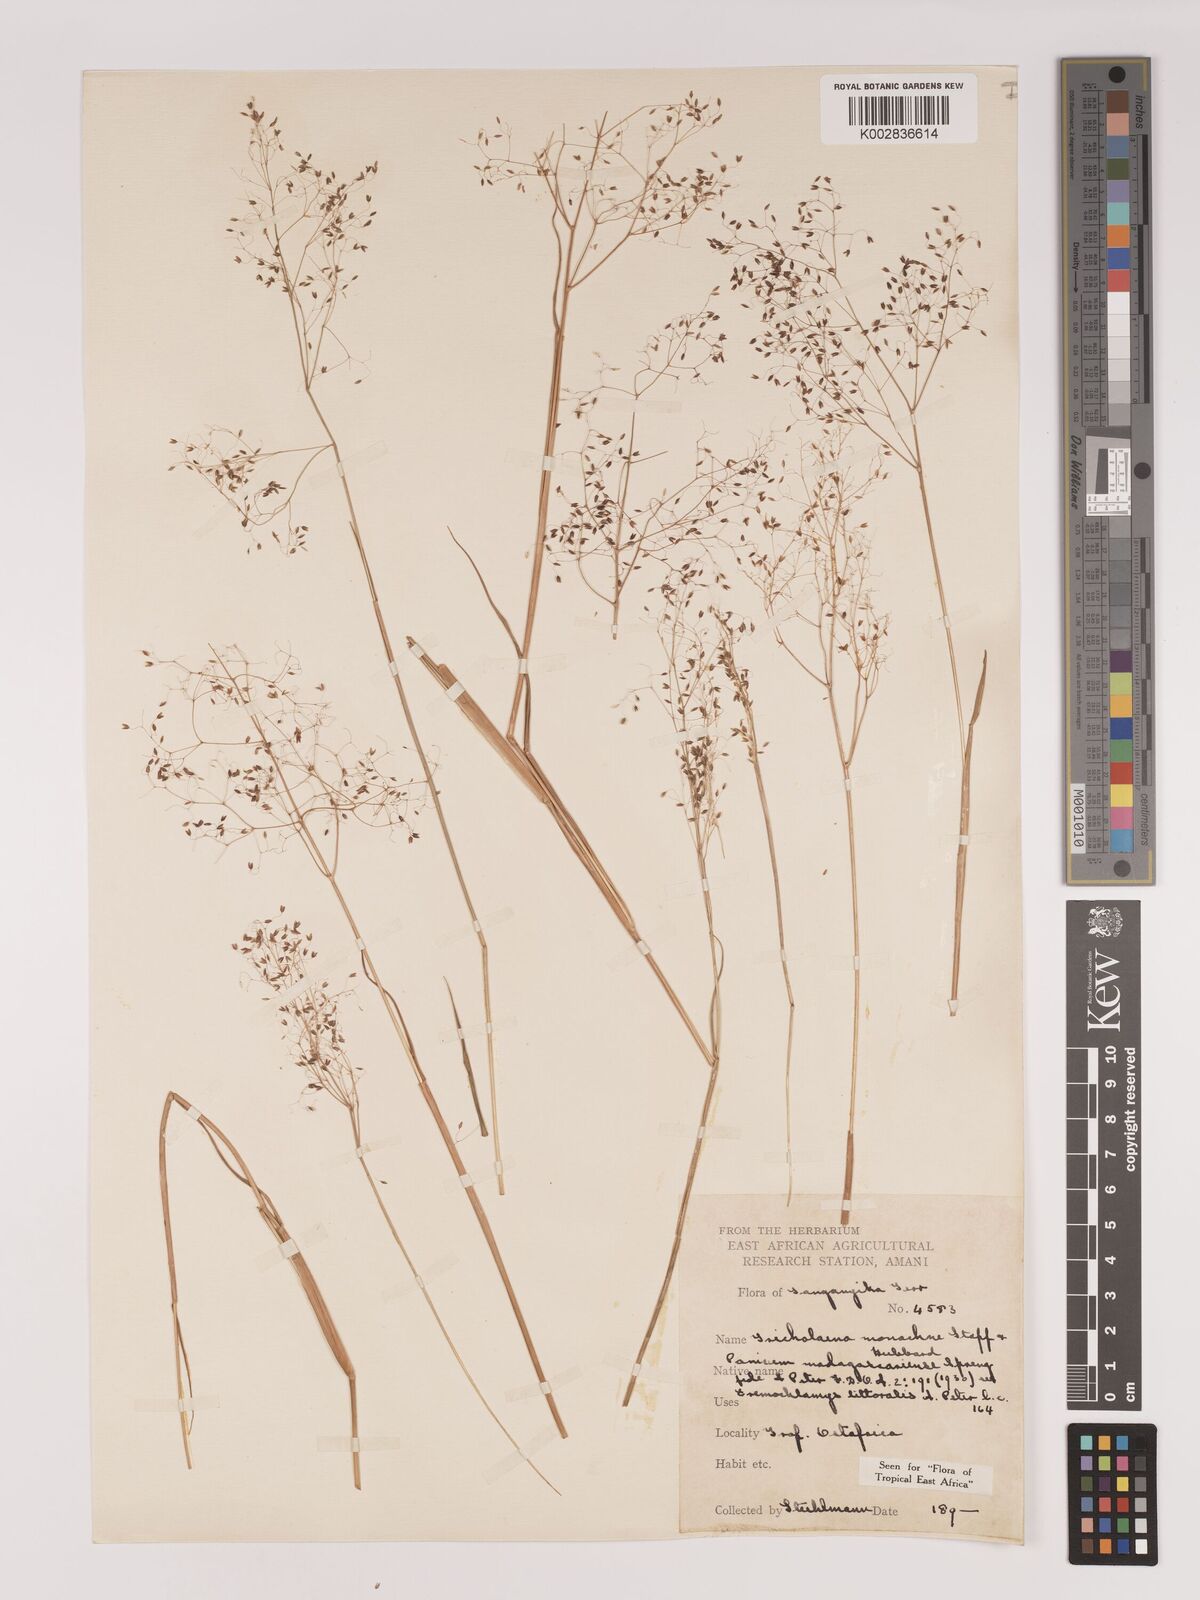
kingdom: Plantae
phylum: Tracheophyta
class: Liliopsida
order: Poales
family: Poaceae
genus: Tricholaena
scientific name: Tricholaena monachne
